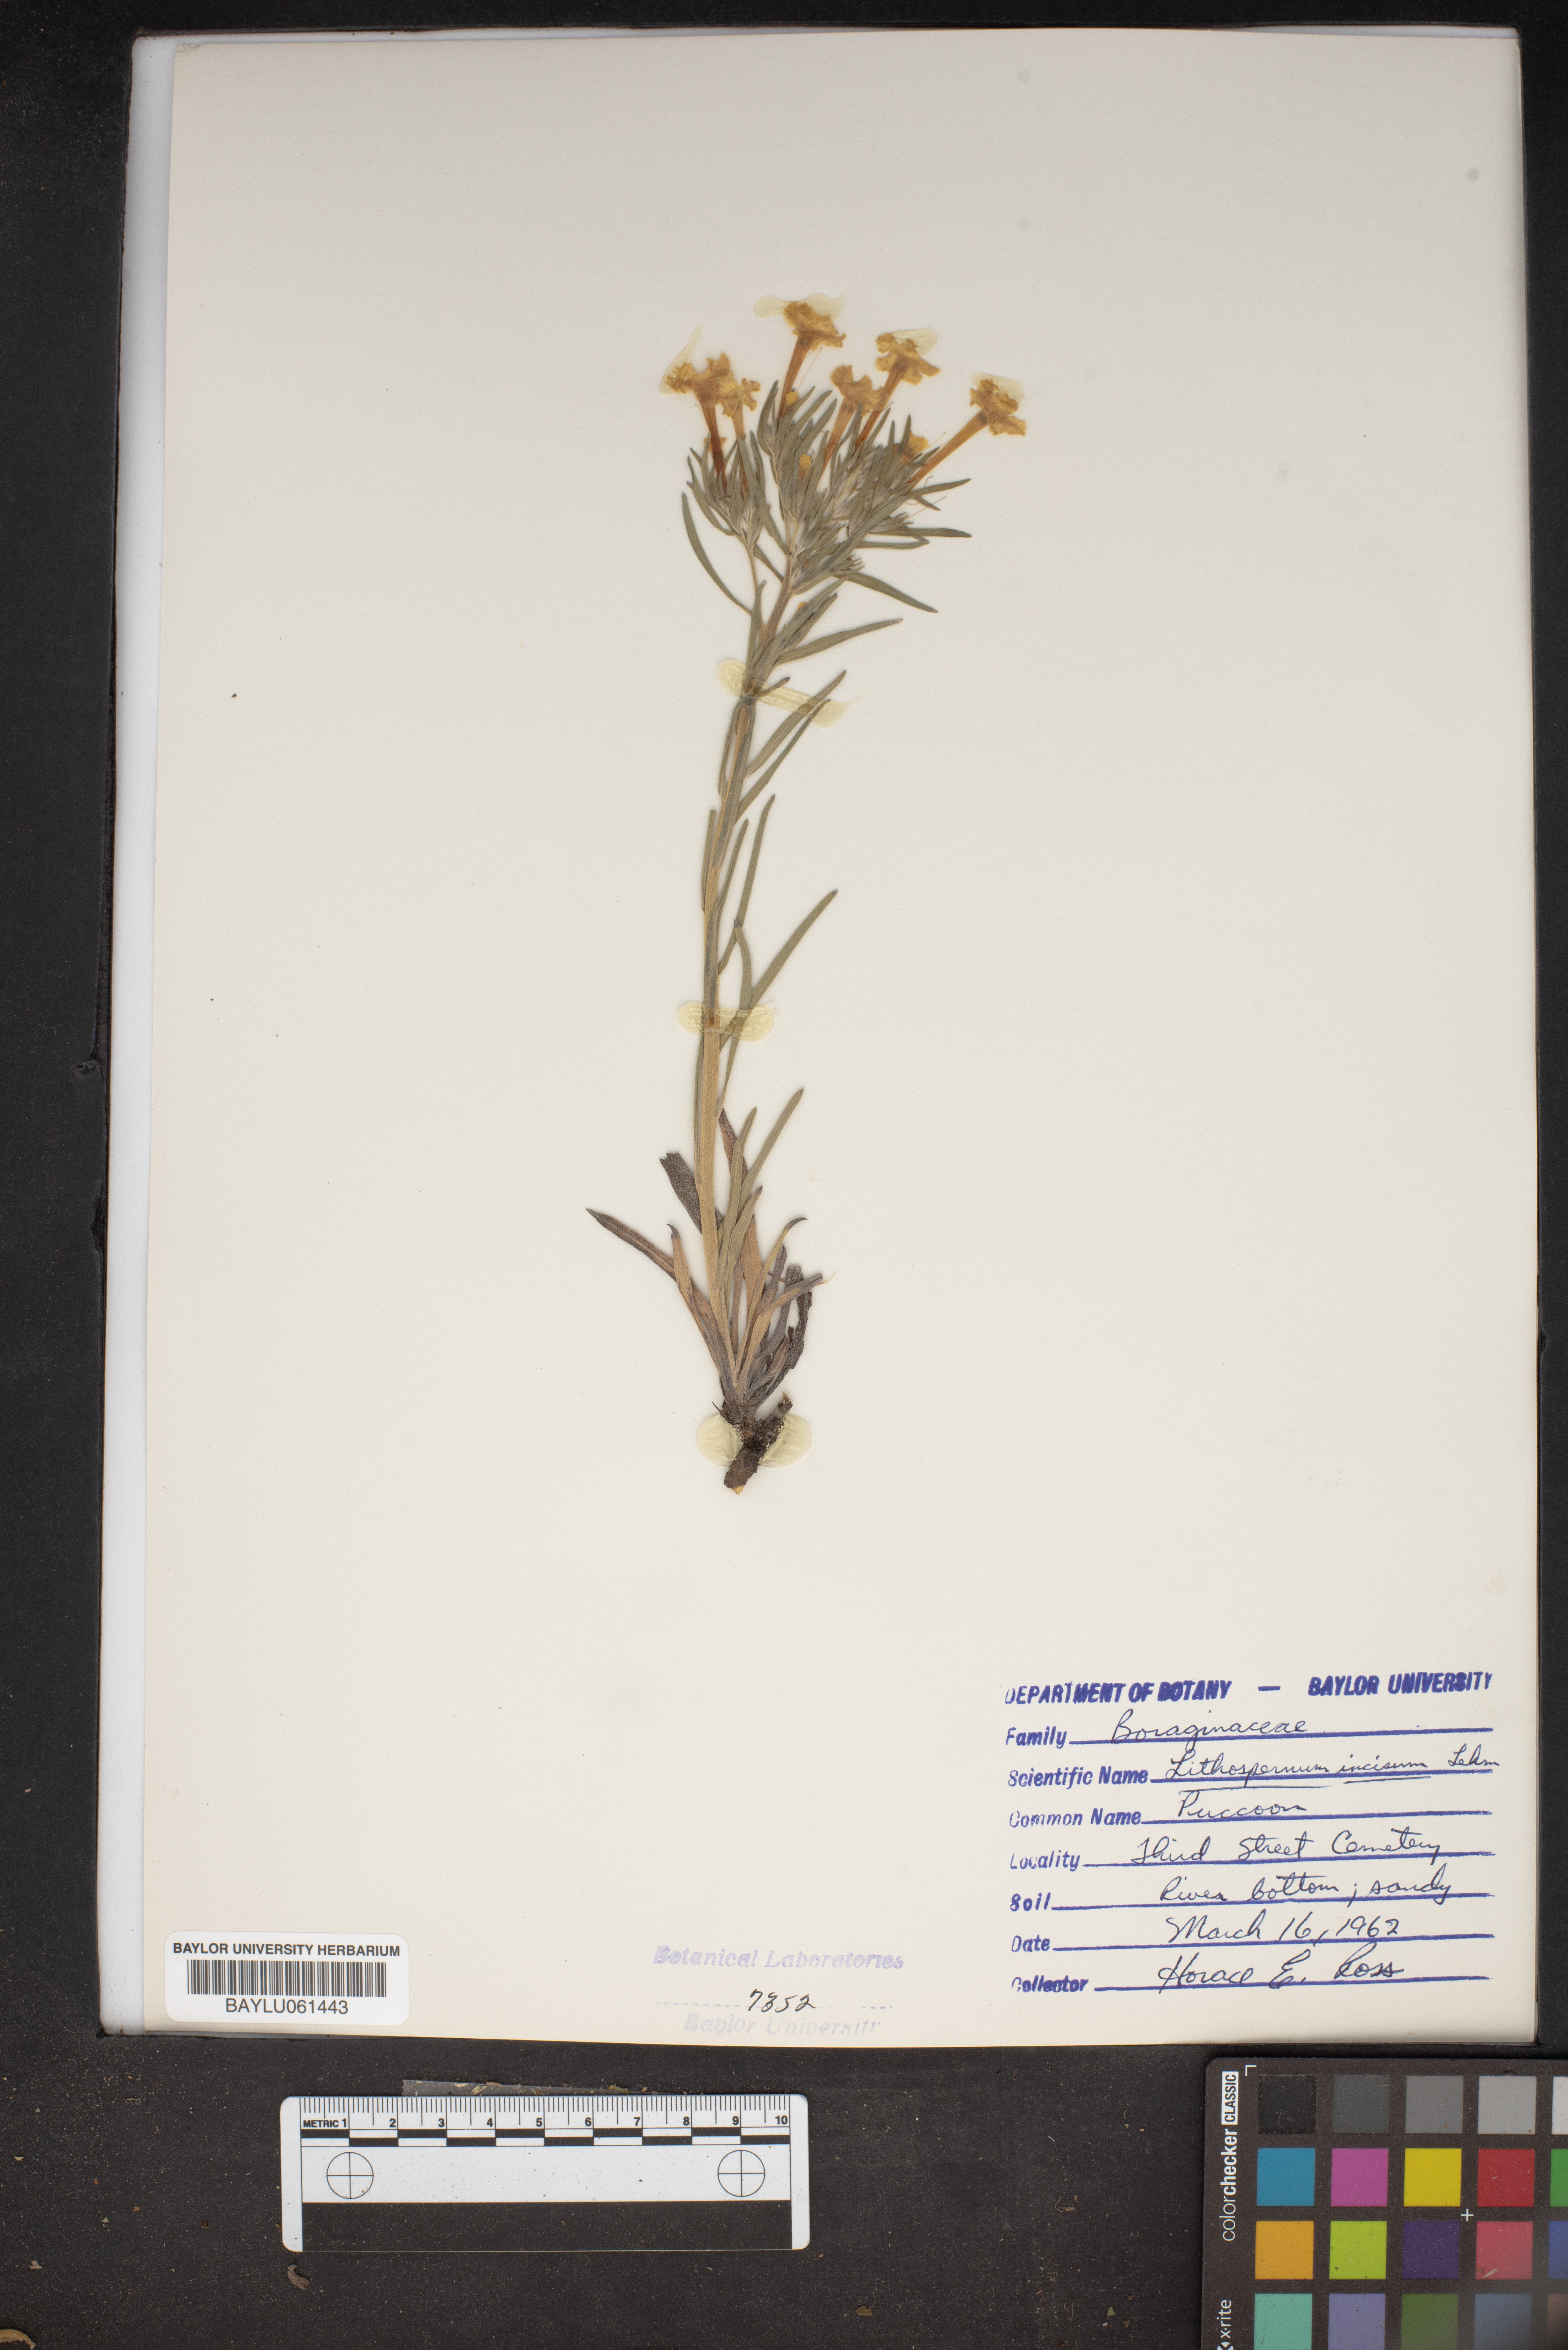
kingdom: Plantae
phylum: Tracheophyta
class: Magnoliopsida
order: Boraginales
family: Boraginaceae
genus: Lithospermum
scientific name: Lithospermum incisum
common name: Fringed gromwell
